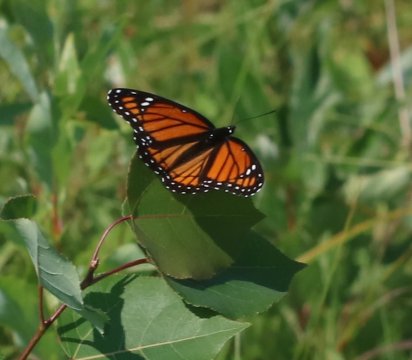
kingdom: Animalia
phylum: Arthropoda
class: Insecta
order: Lepidoptera
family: Nymphalidae
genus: Limenitis
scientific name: Limenitis archippus
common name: Viceroy
